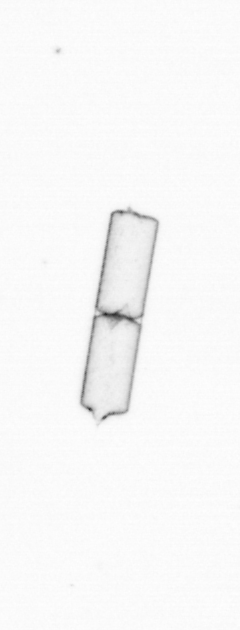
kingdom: Chromista
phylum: Ochrophyta
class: Bacillariophyceae
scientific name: Bacillariophyceae
